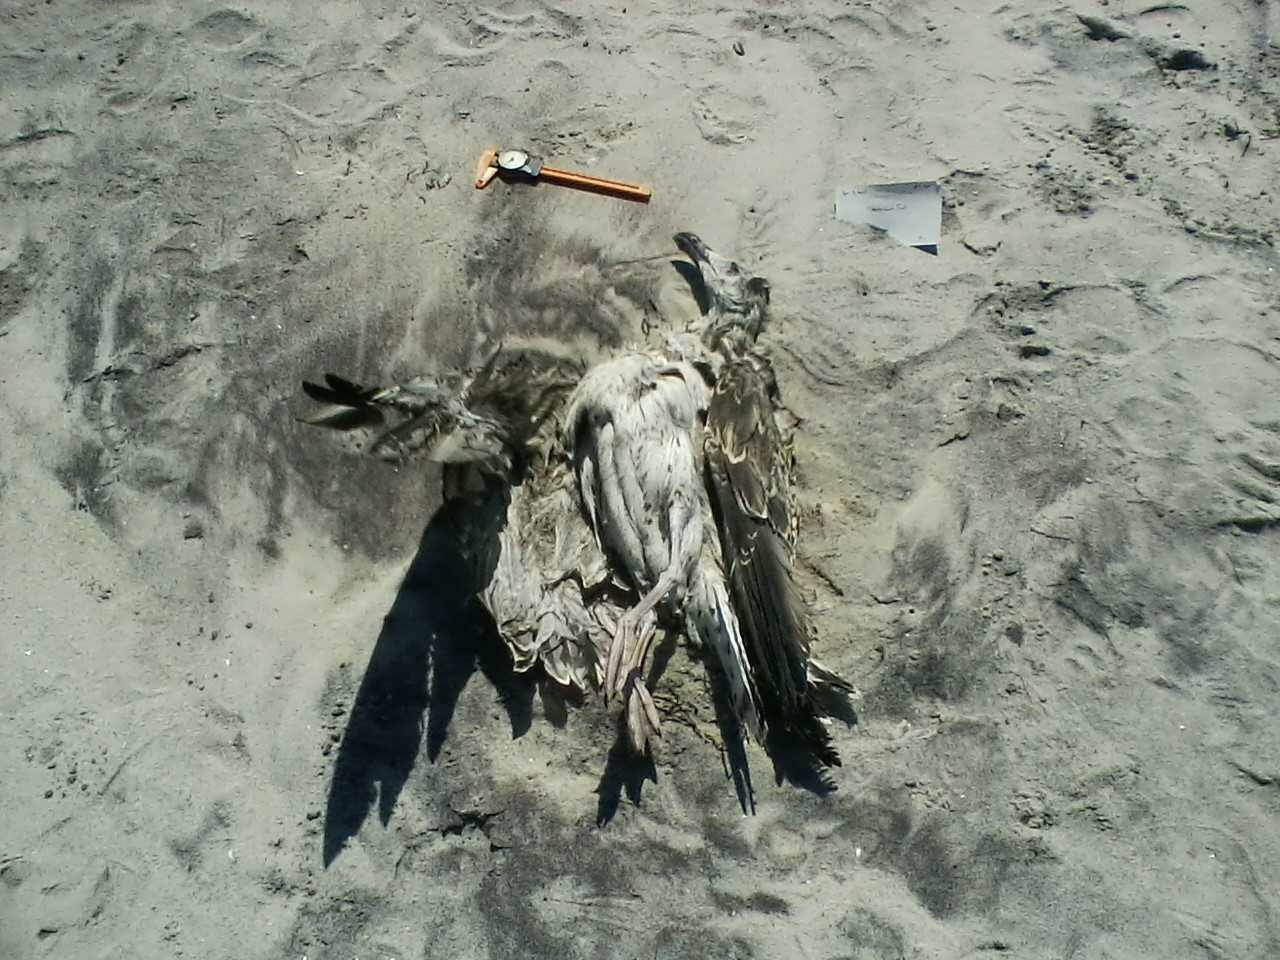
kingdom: Animalia
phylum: Chordata
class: Aves
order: Charadriiformes
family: Scolopacidae
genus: Calidris
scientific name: Calidris alpina
